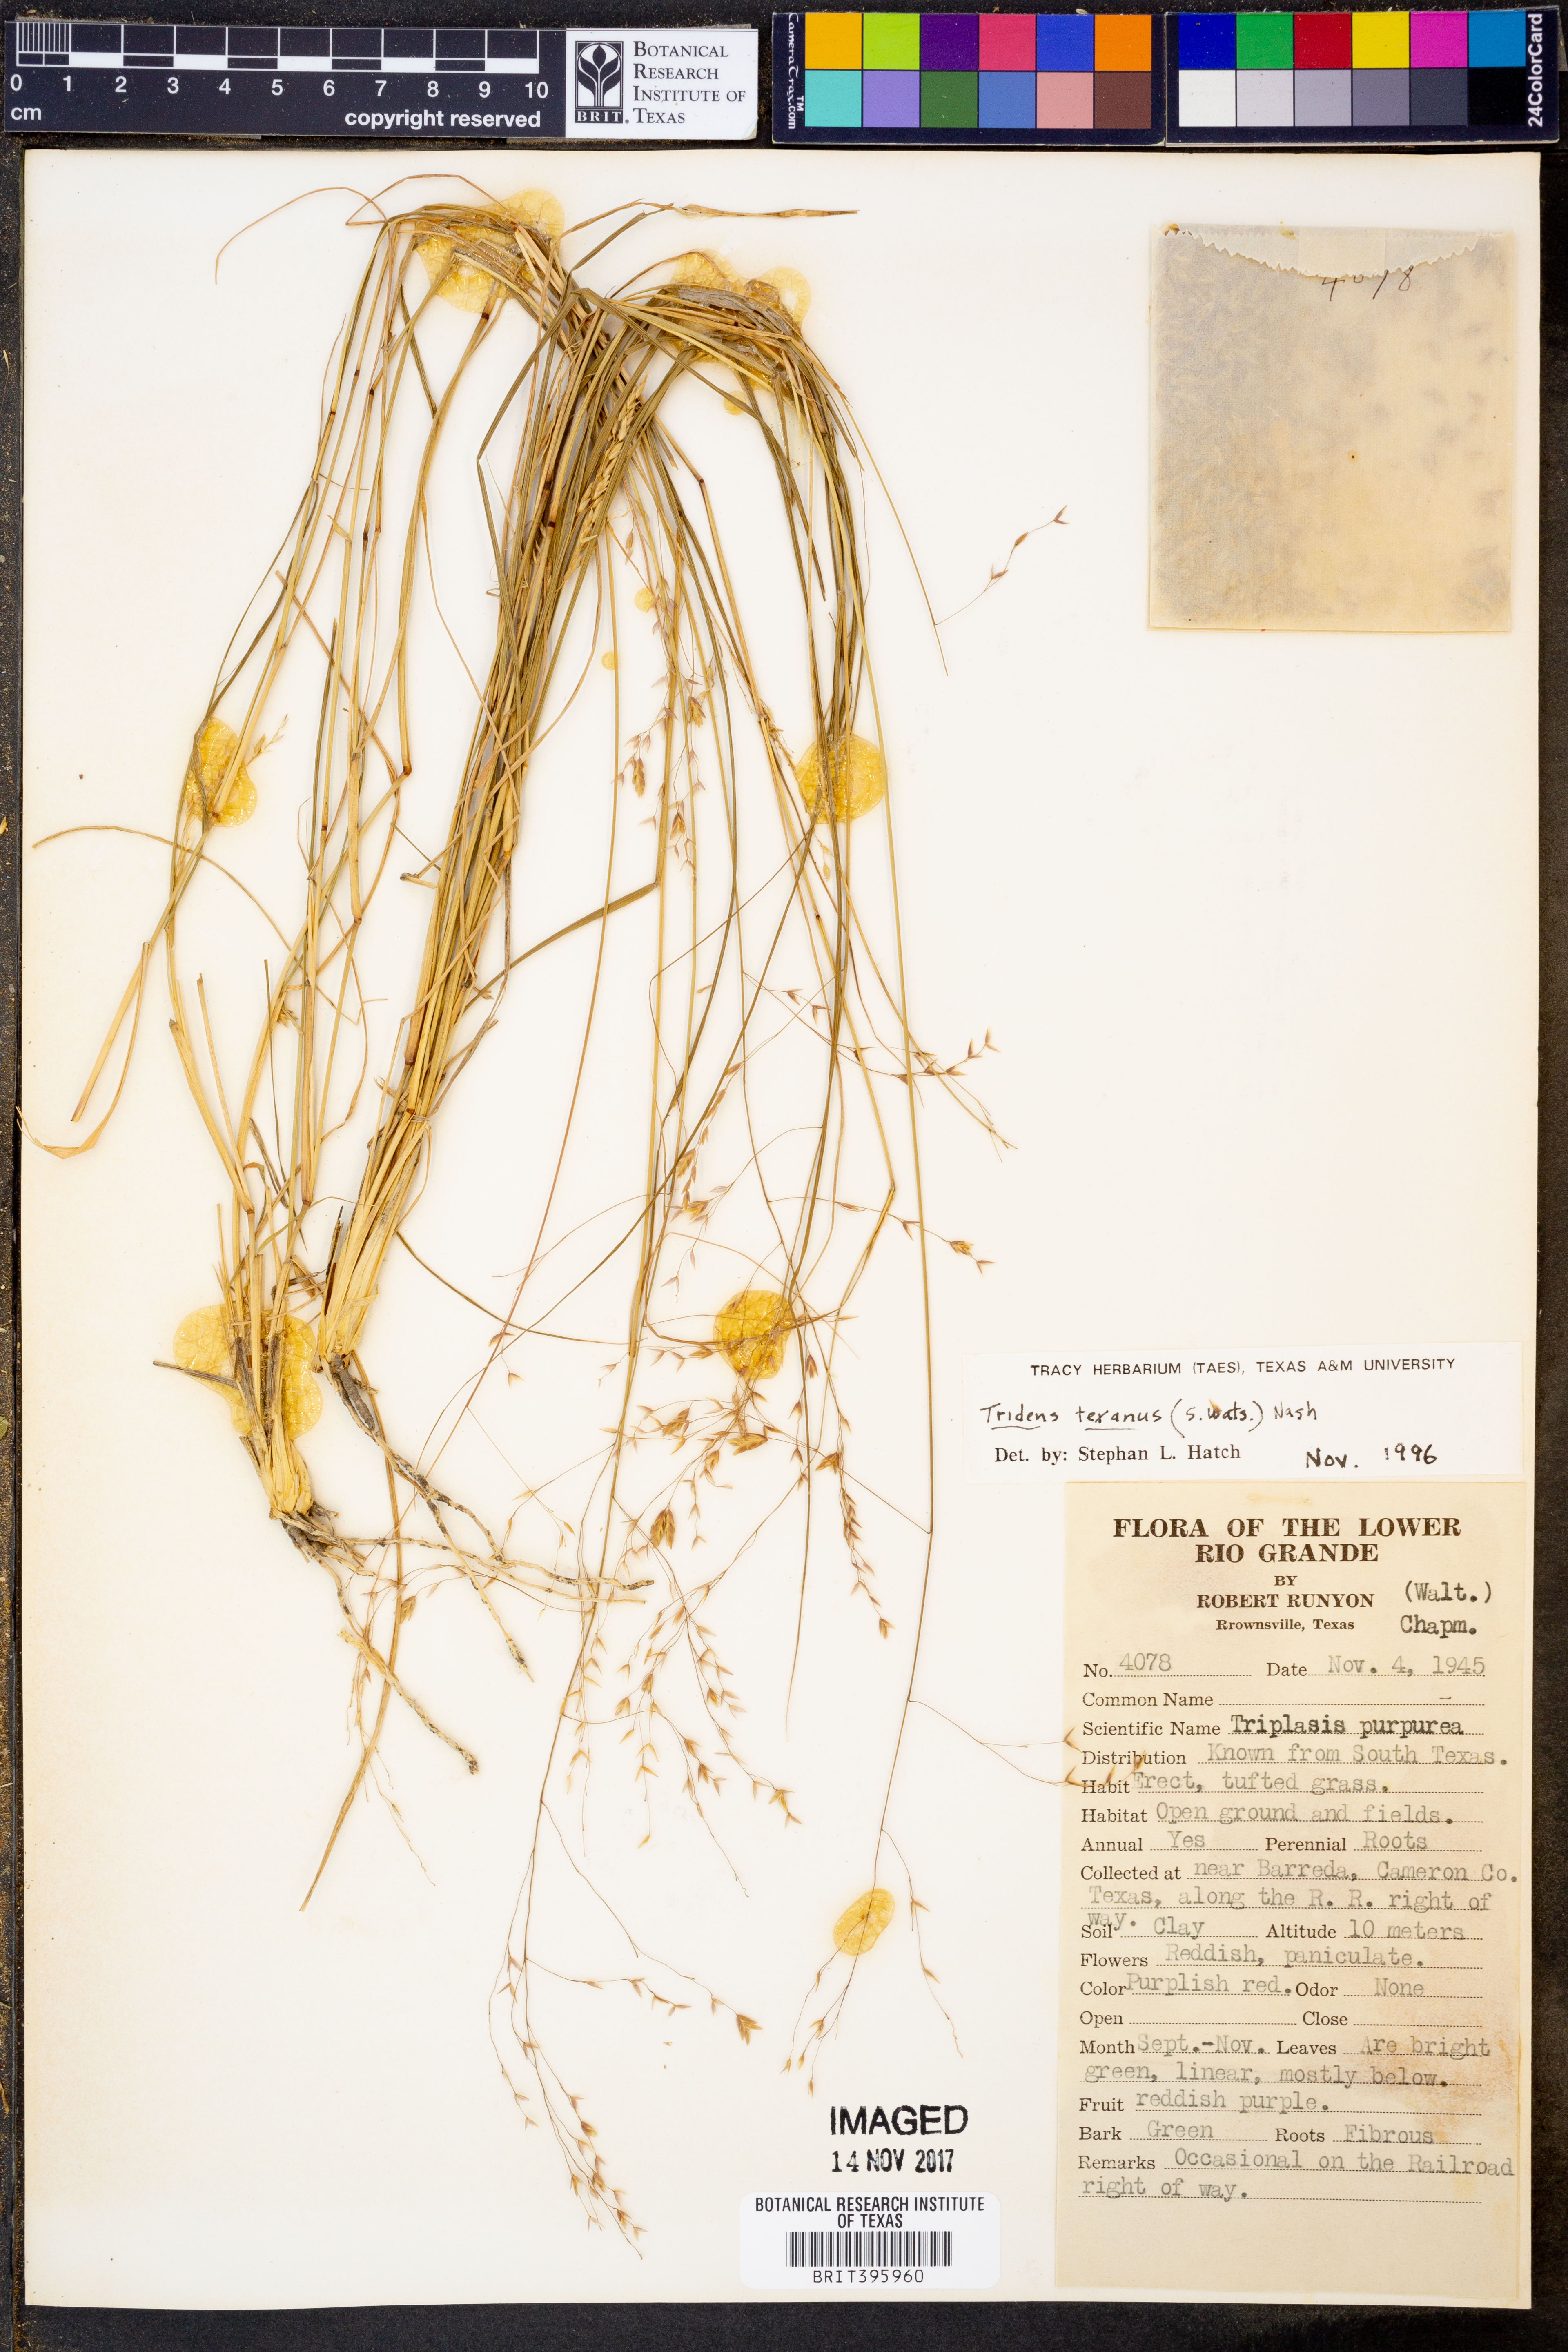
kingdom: Plantae
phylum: Tracheophyta
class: Liliopsida
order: Poales
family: Poaceae
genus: Tridens
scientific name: Tridens texanus
